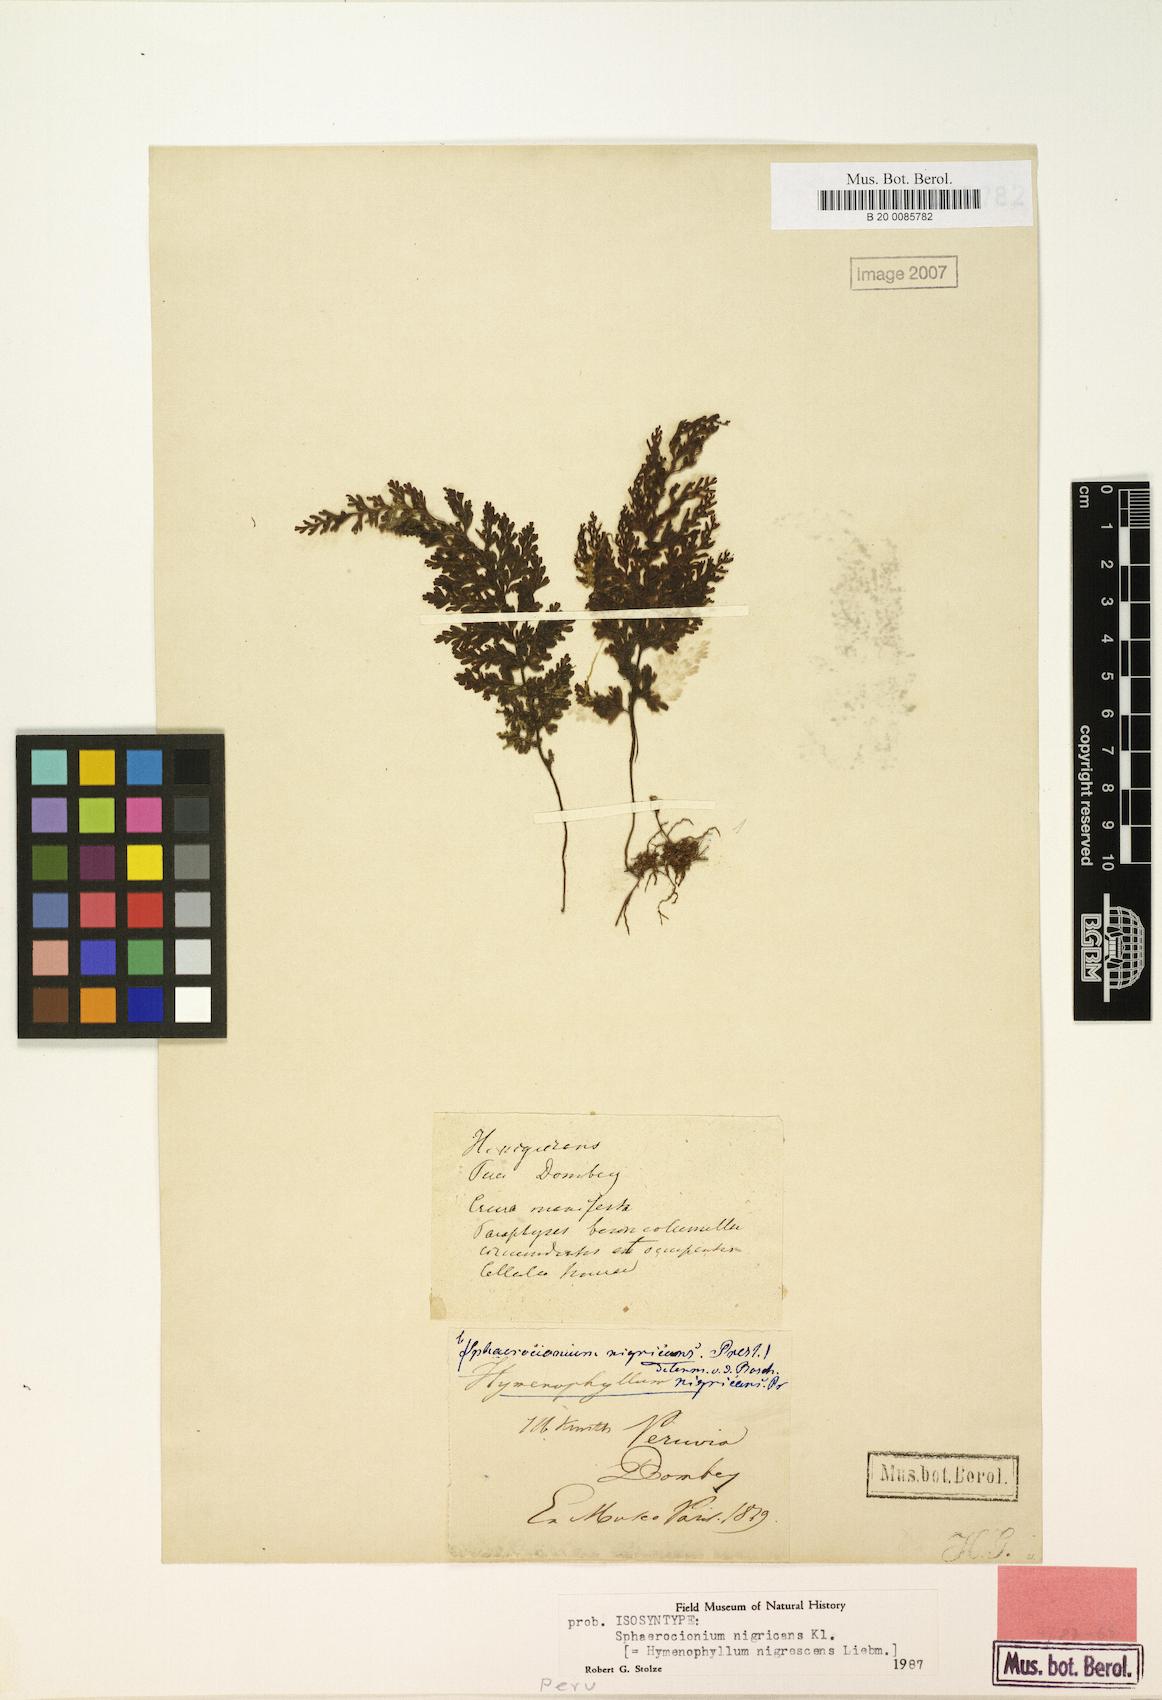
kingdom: Plantae
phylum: Tracheophyta
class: Polypodiopsida
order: Hymenophyllales
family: Hymenophyllaceae
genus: Hymenophyllum
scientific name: Hymenophyllum myriocarpum
